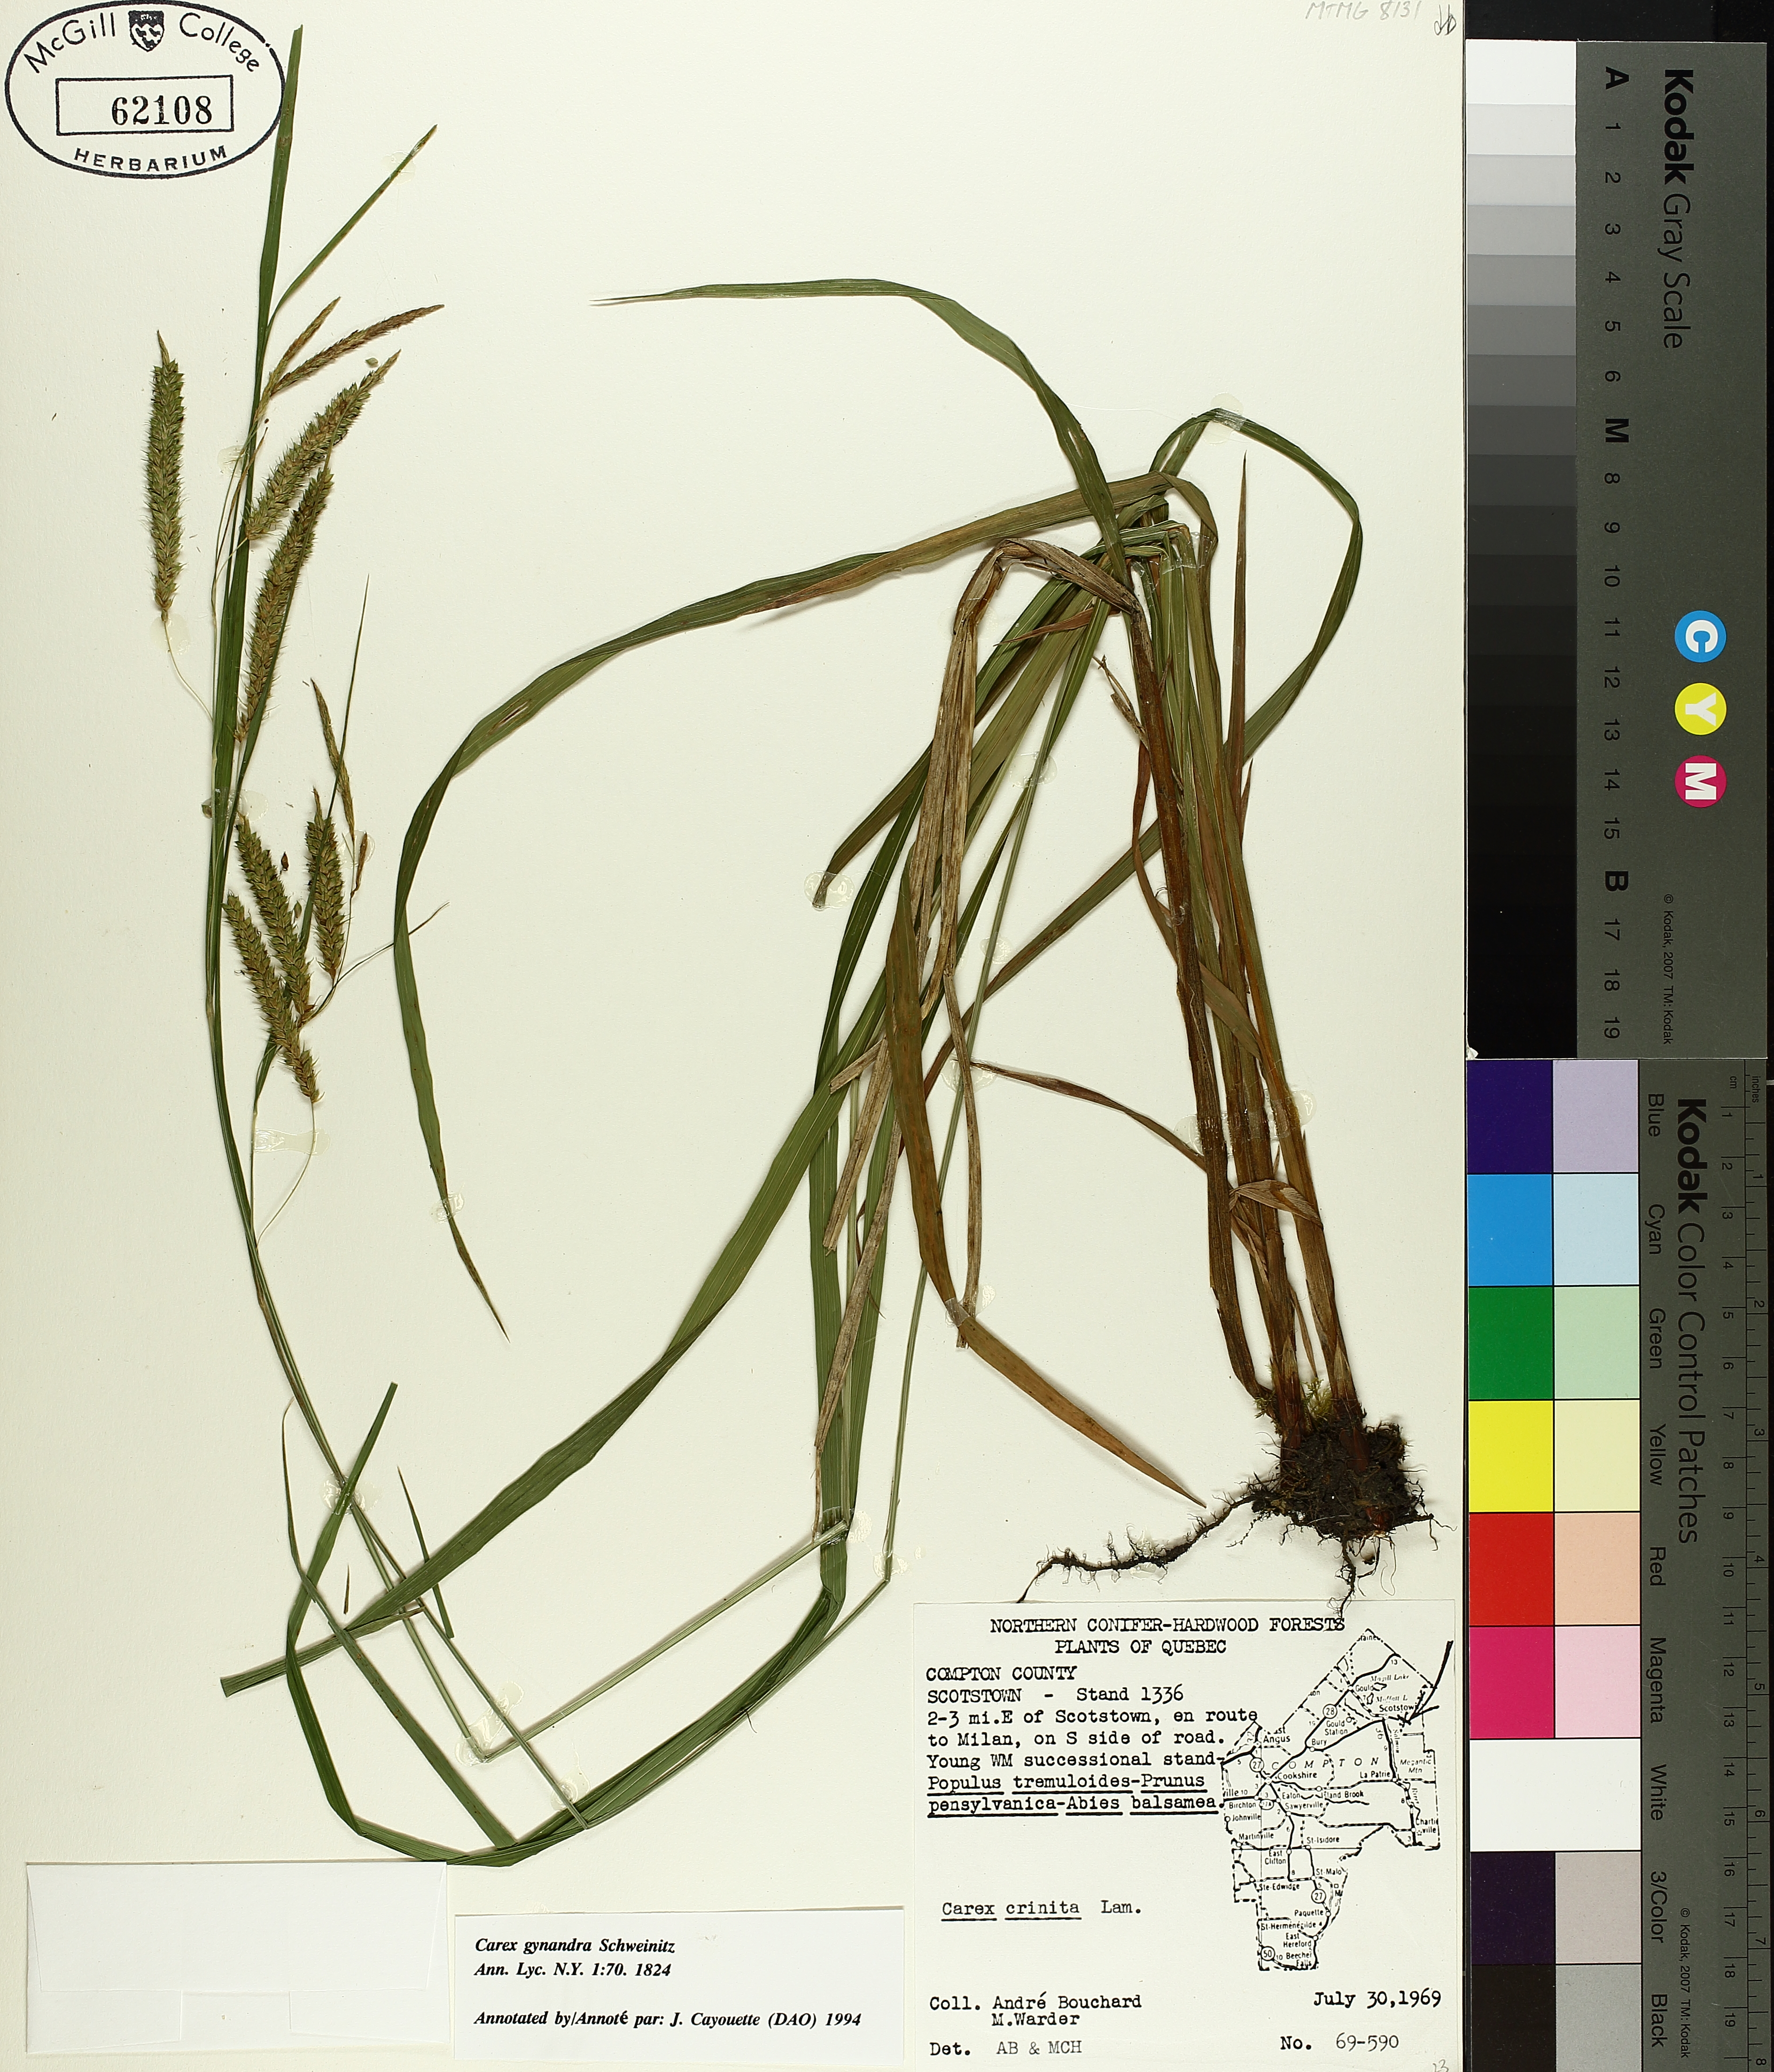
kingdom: Plantae
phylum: Tracheophyta
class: Liliopsida
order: Poales
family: Cyperaceae
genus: Carex
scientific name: Carex gynandra
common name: Nodding sedge
